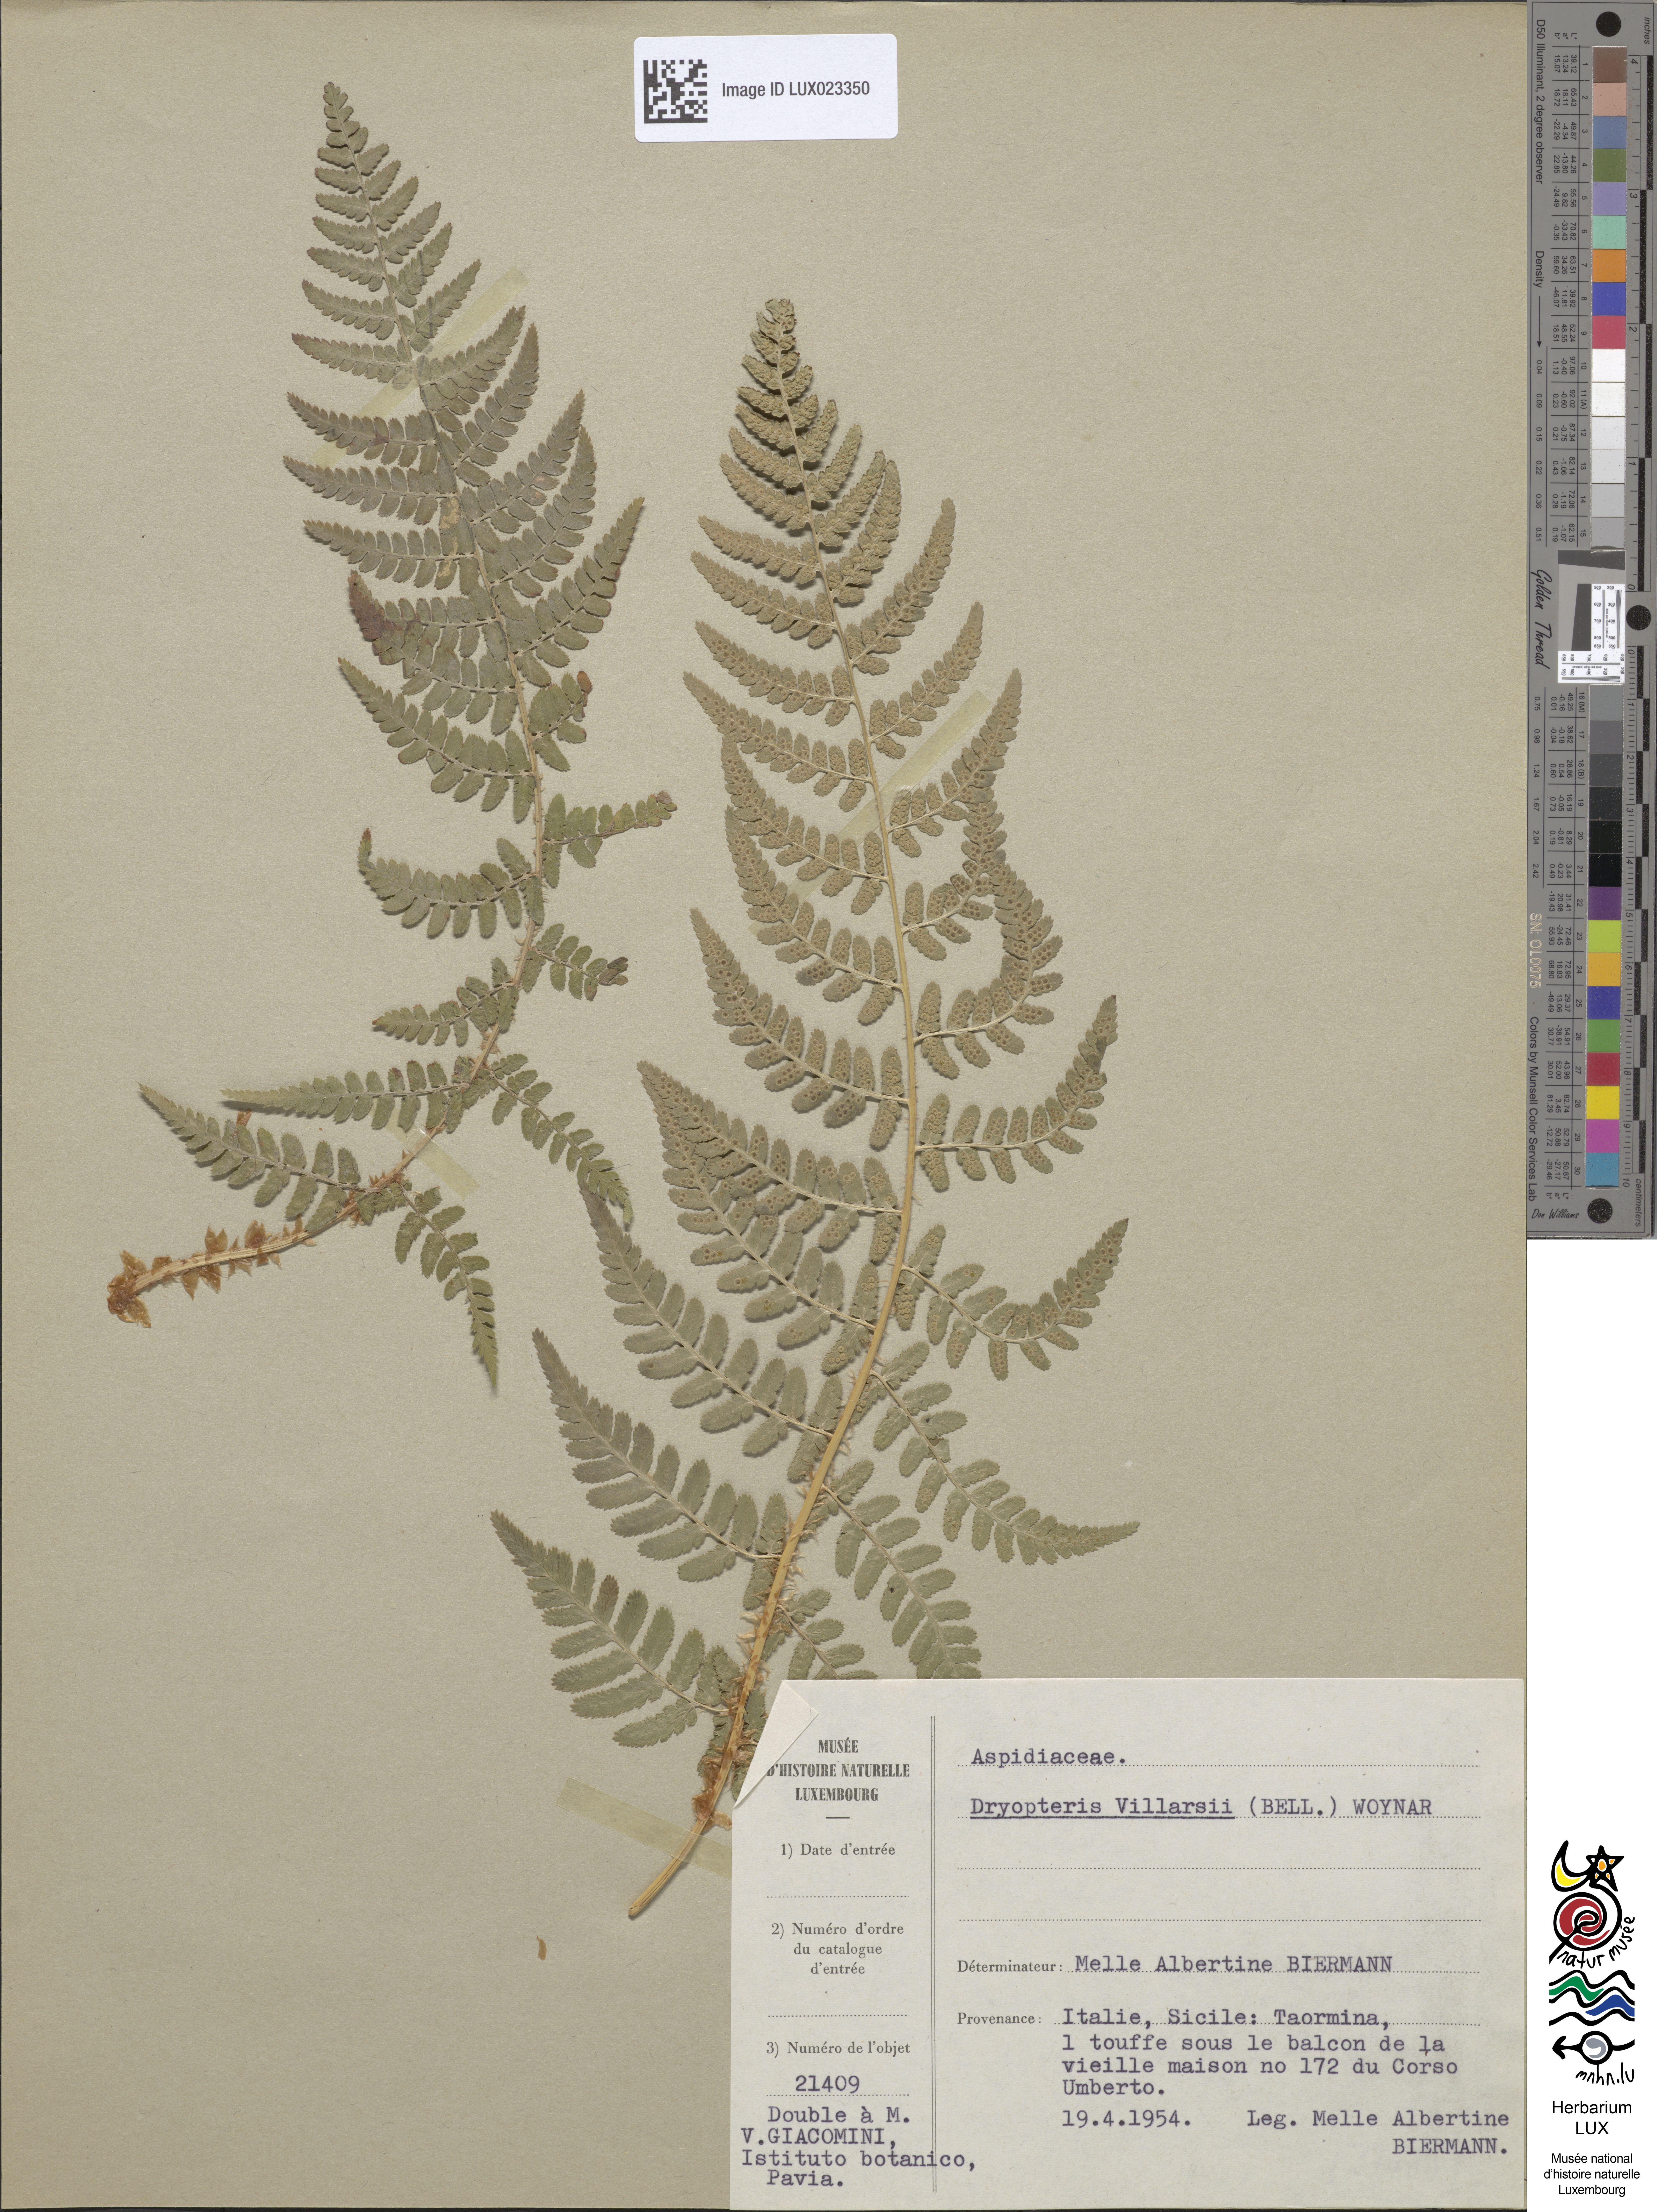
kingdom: Plantae
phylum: Tracheophyta
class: Polypodiopsida
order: Polypodiales
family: Dryopteridaceae
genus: Dryopteris
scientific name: Dryopteris villarii
